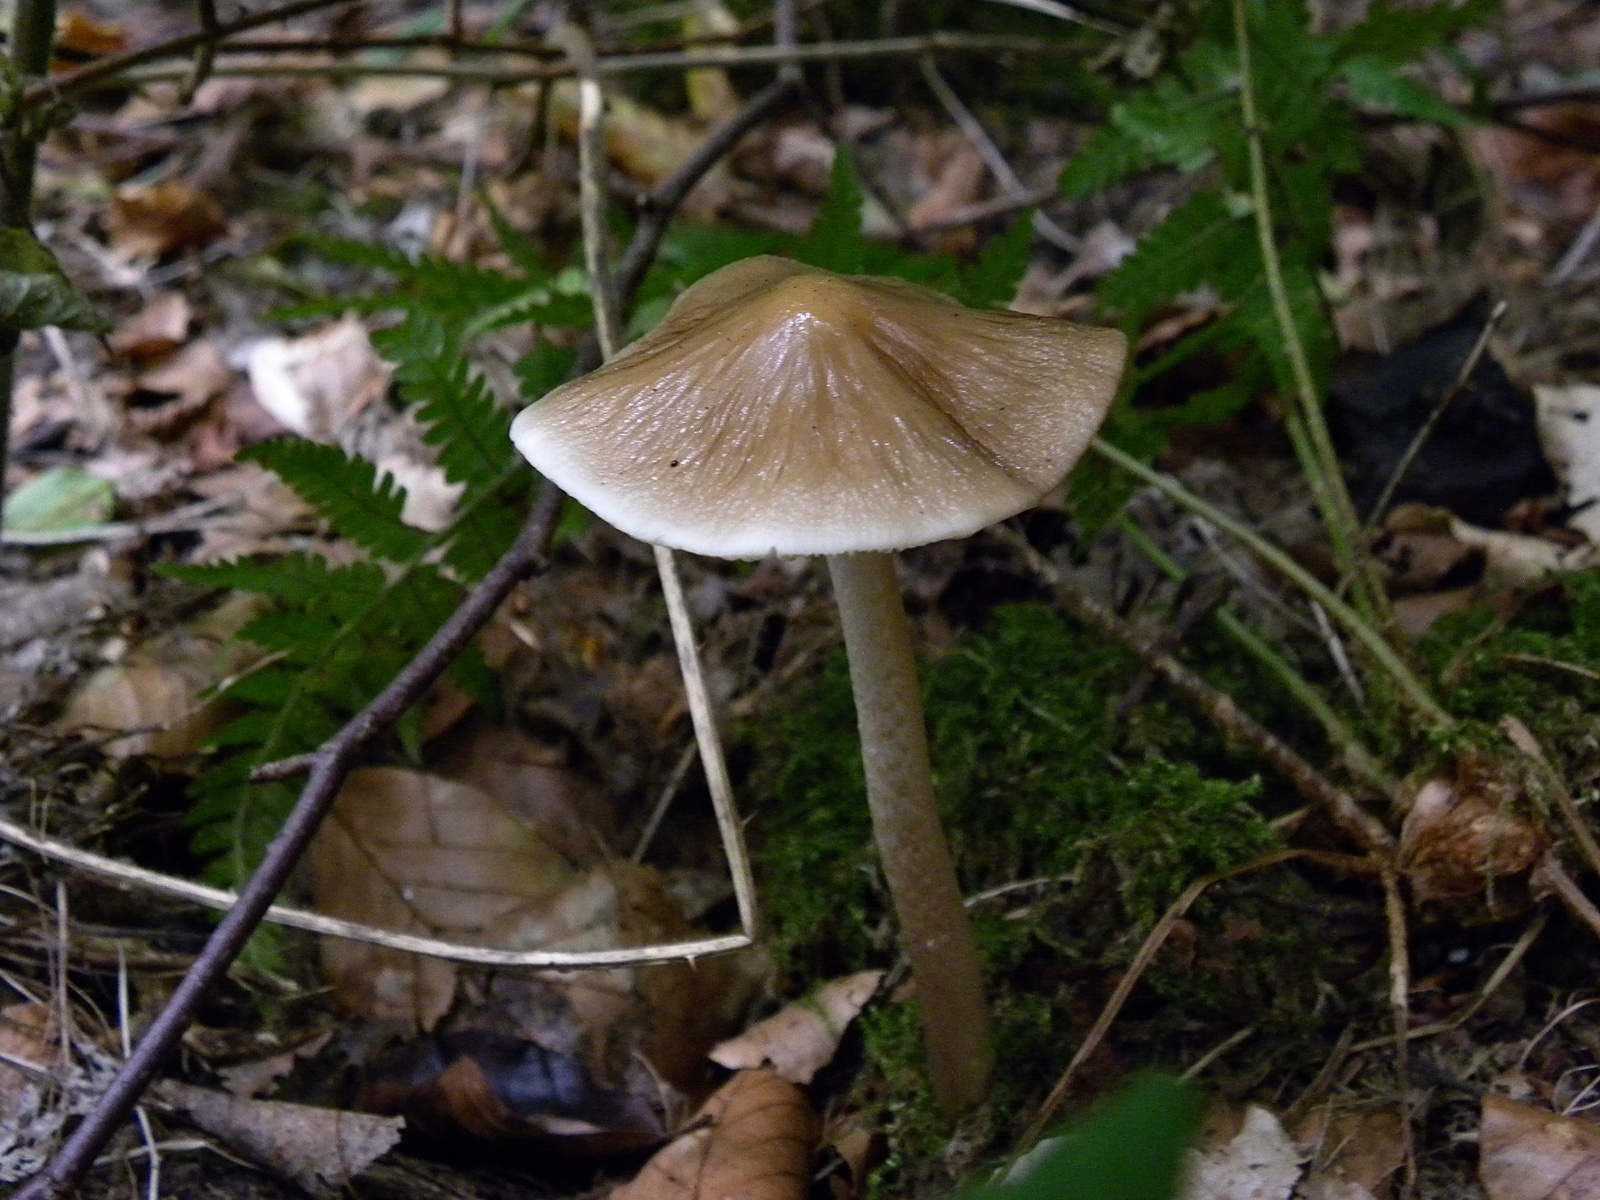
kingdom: Fungi
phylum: Basidiomycota
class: Agaricomycetes
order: Agaricales
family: Physalacriaceae
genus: Hymenopellis
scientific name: Hymenopellis radicata
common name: almindelig pælerodshat
